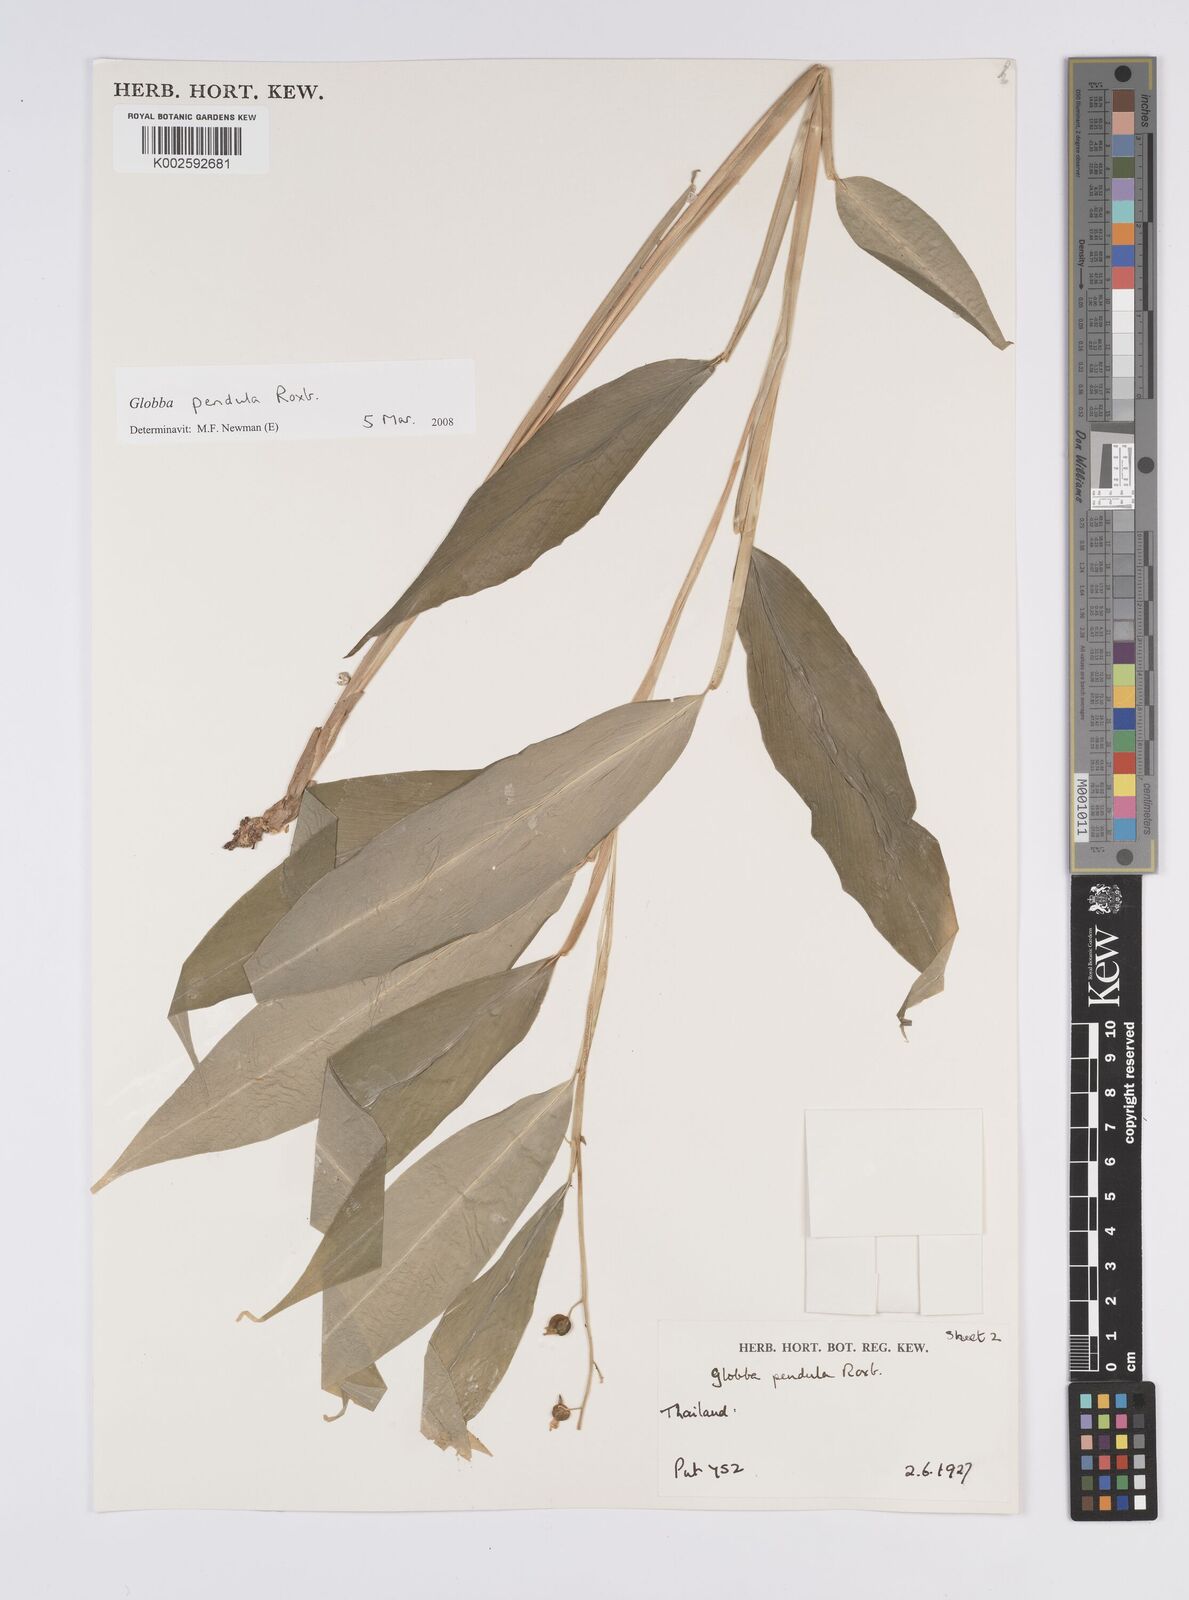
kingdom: Plantae
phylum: Tracheophyta
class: Liliopsida
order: Zingiberales
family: Zingiberaceae
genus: Globba
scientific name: Globba pendula
